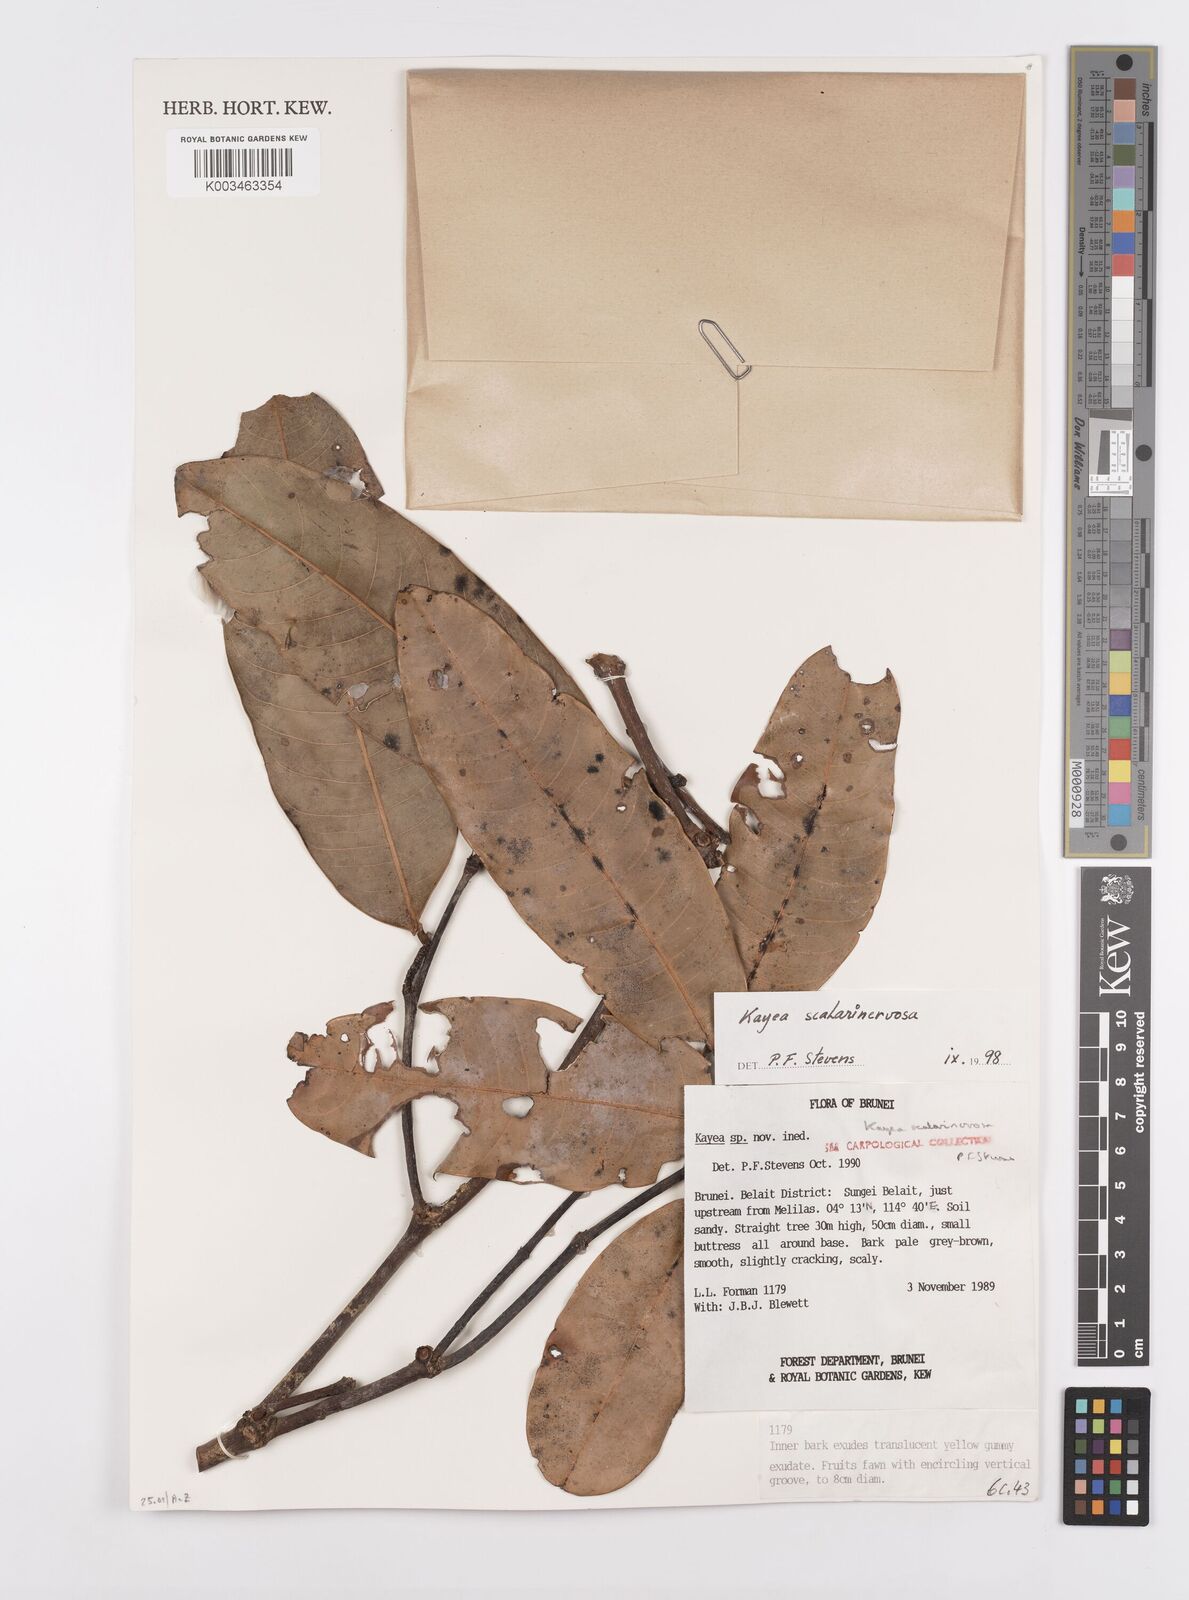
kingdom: Plantae
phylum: Tracheophyta
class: Magnoliopsida
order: Malpighiales
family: Calophyllaceae
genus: Kayea
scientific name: Kayea scalarinervosa
